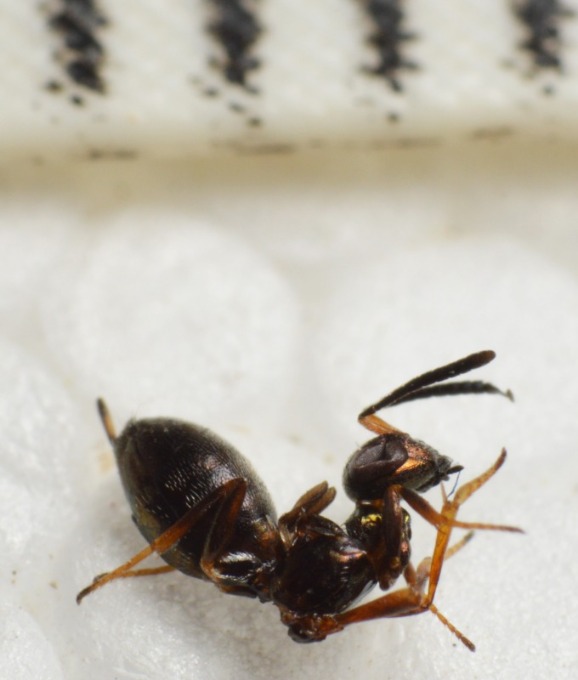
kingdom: Animalia
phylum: Arthropoda
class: Insecta
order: Hymenoptera
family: Eupelmidae
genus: Eupelmus
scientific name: Eupelmus vesicularis
